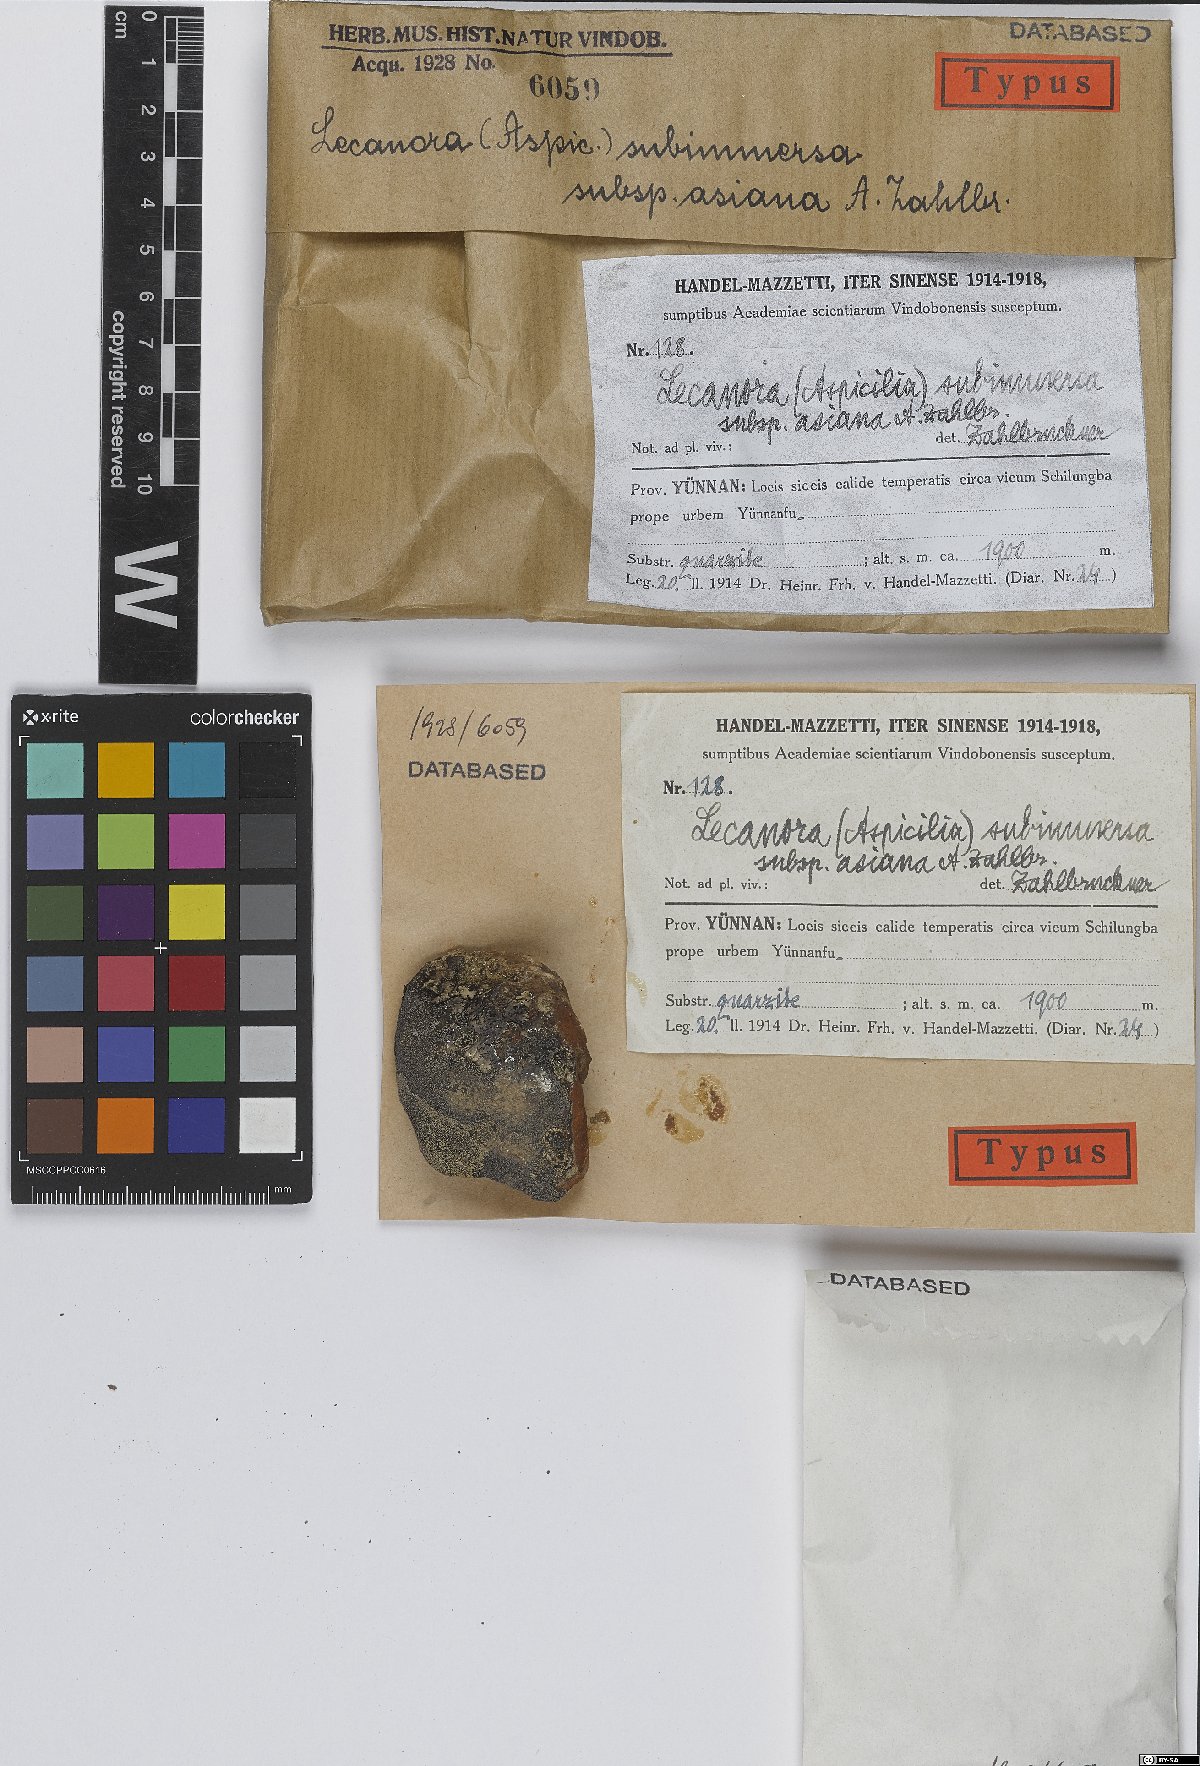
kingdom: Fungi
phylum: Ascomycota
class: Lecanoromycetes
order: Lecanorales
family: Lecanoraceae
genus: Lecanora
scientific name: Lecanora subimmersa
